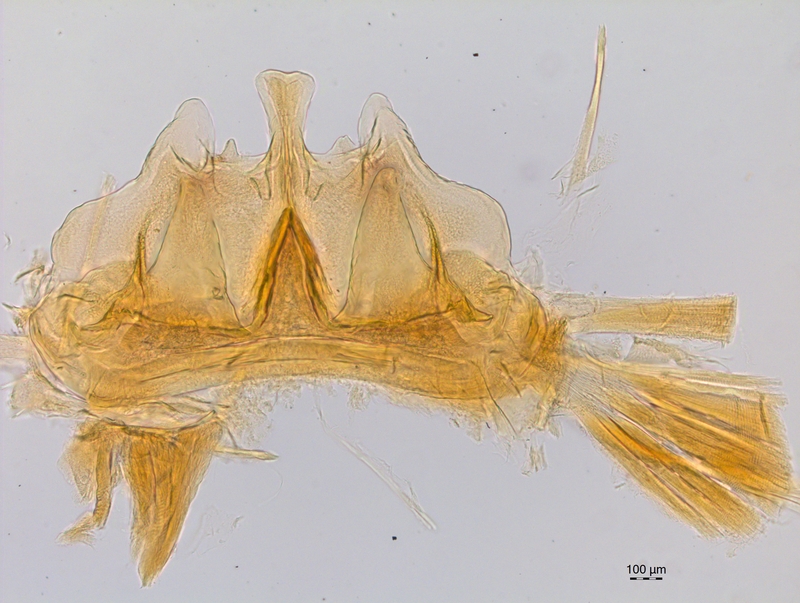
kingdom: Animalia
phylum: Arthropoda
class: Diplopoda
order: Chordeumatida
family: Craspedosomatidae
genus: Craspedosoma
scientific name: Craspedosoma rawlinsii
